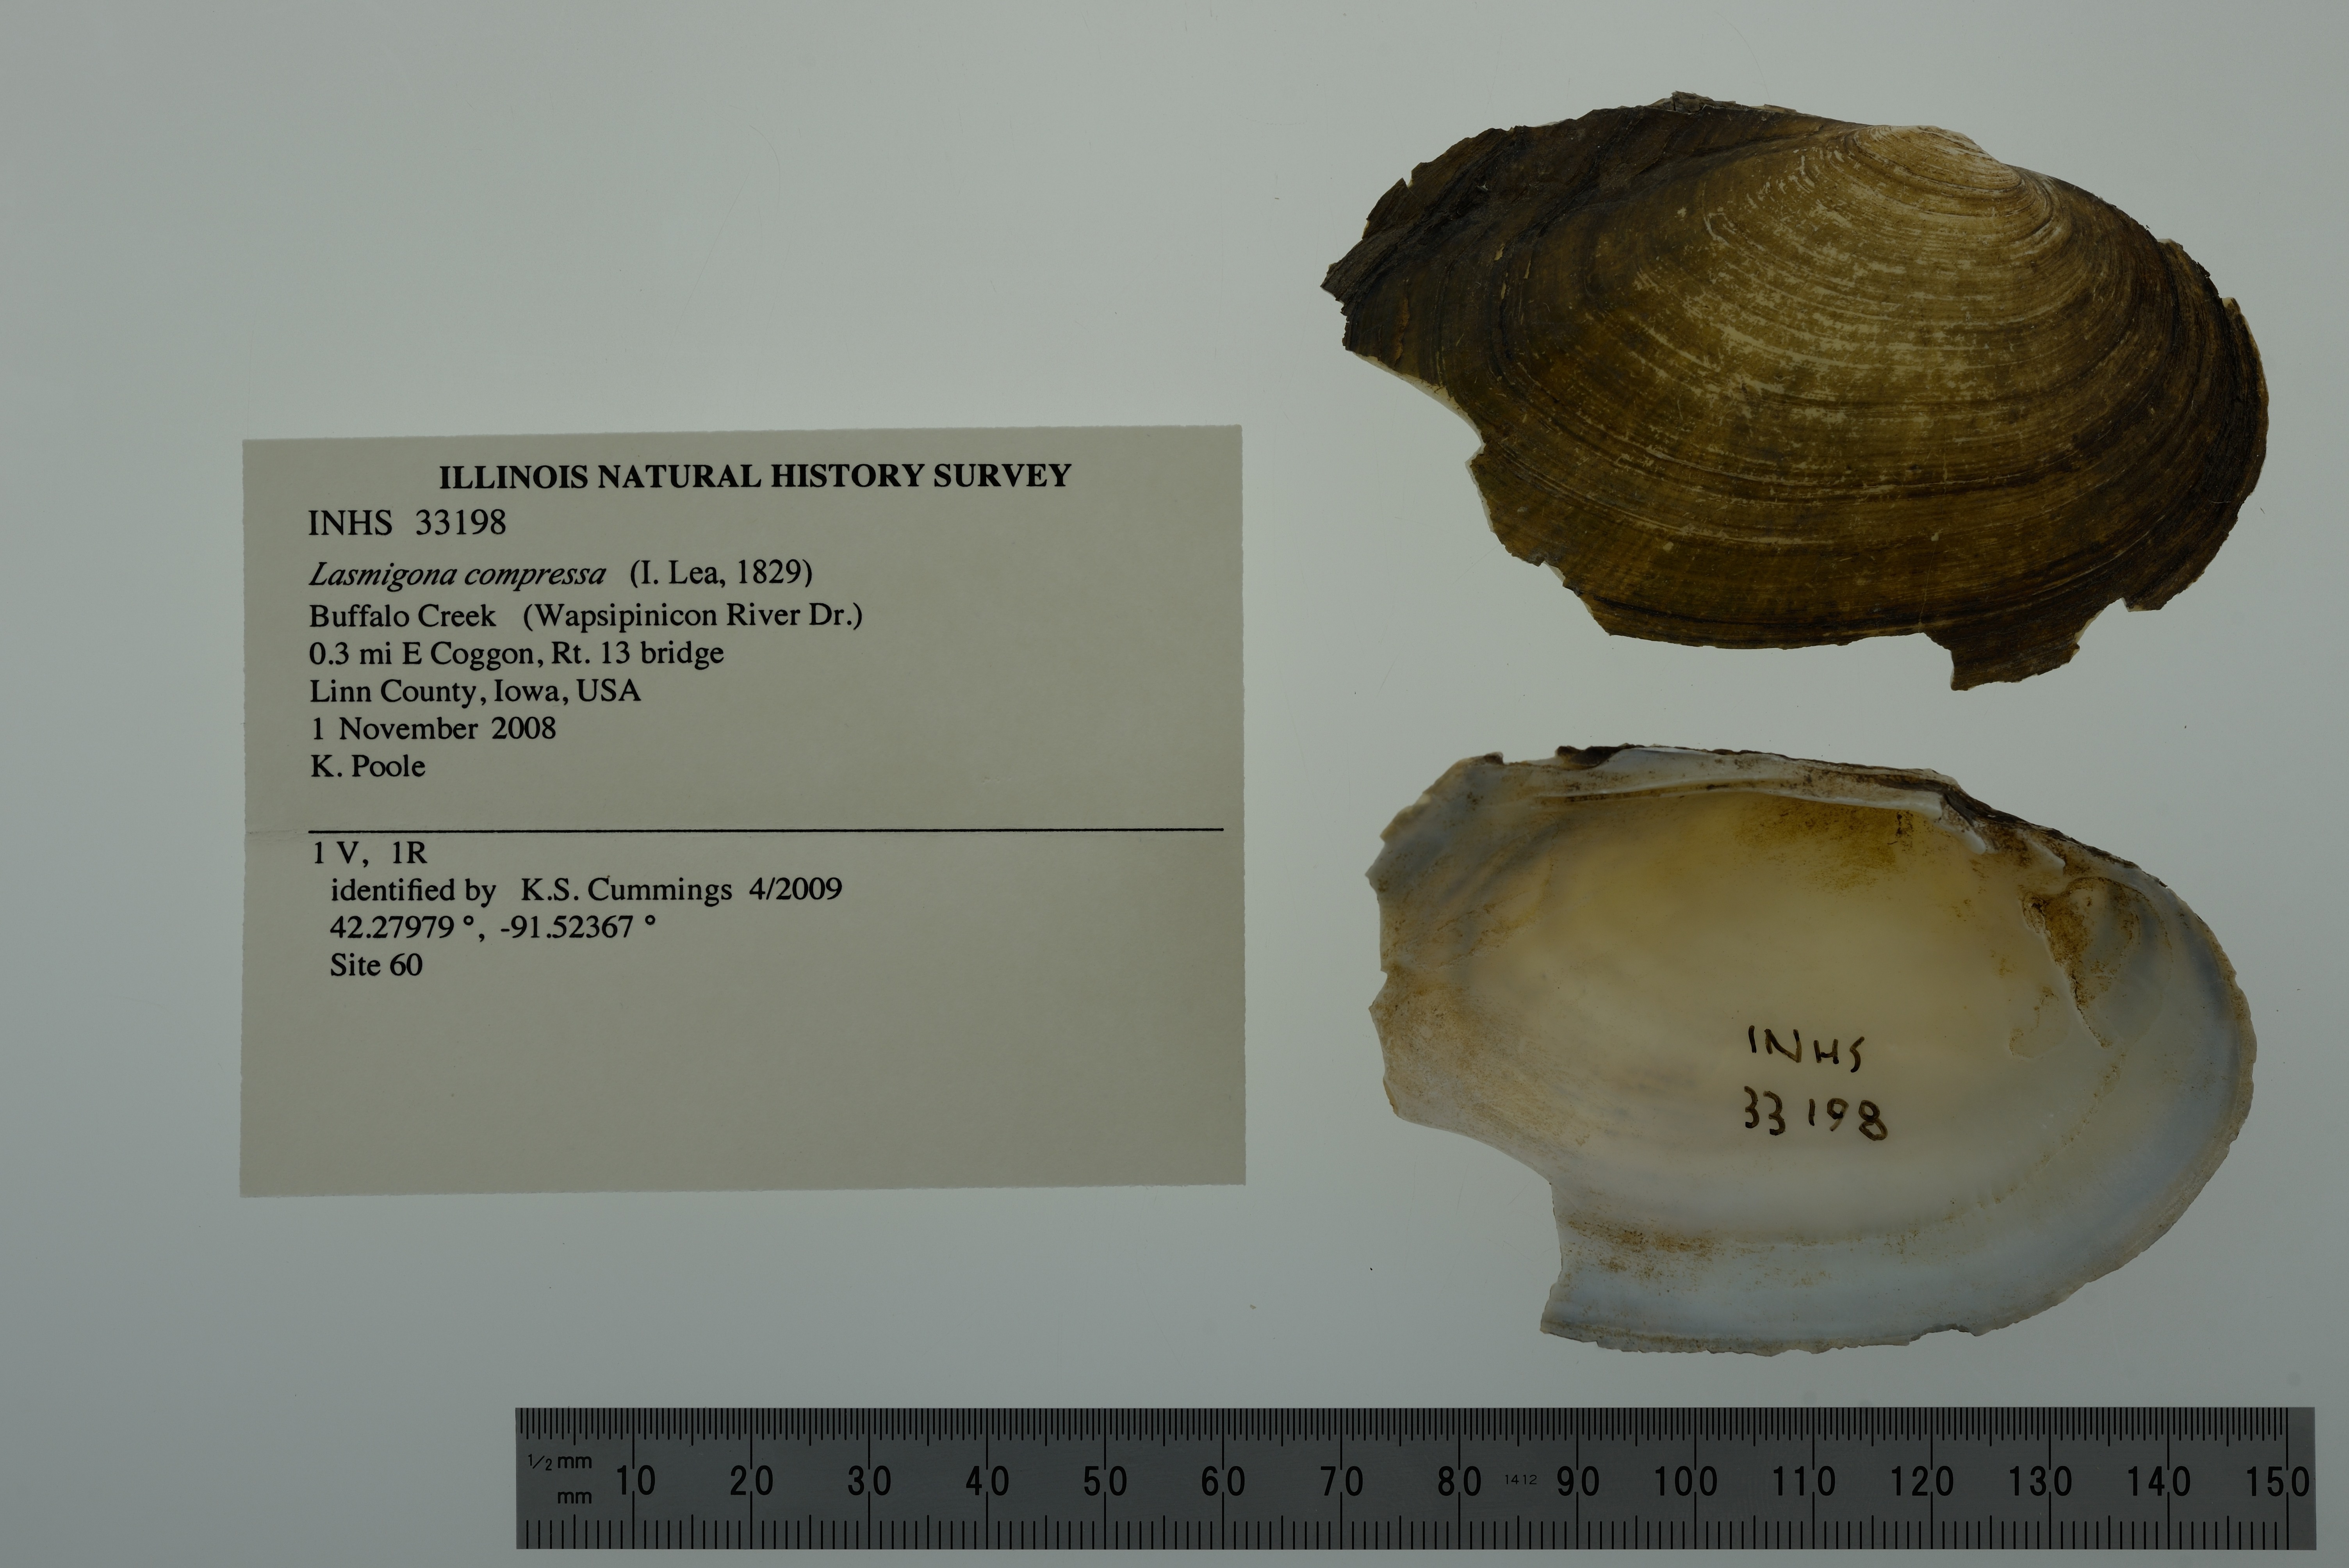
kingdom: Animalia
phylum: Mollusca
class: Bivalvia
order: Unionida
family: Unionidae
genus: Lasmigona
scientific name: Lasmigona compressa
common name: Creek heelsplitter
